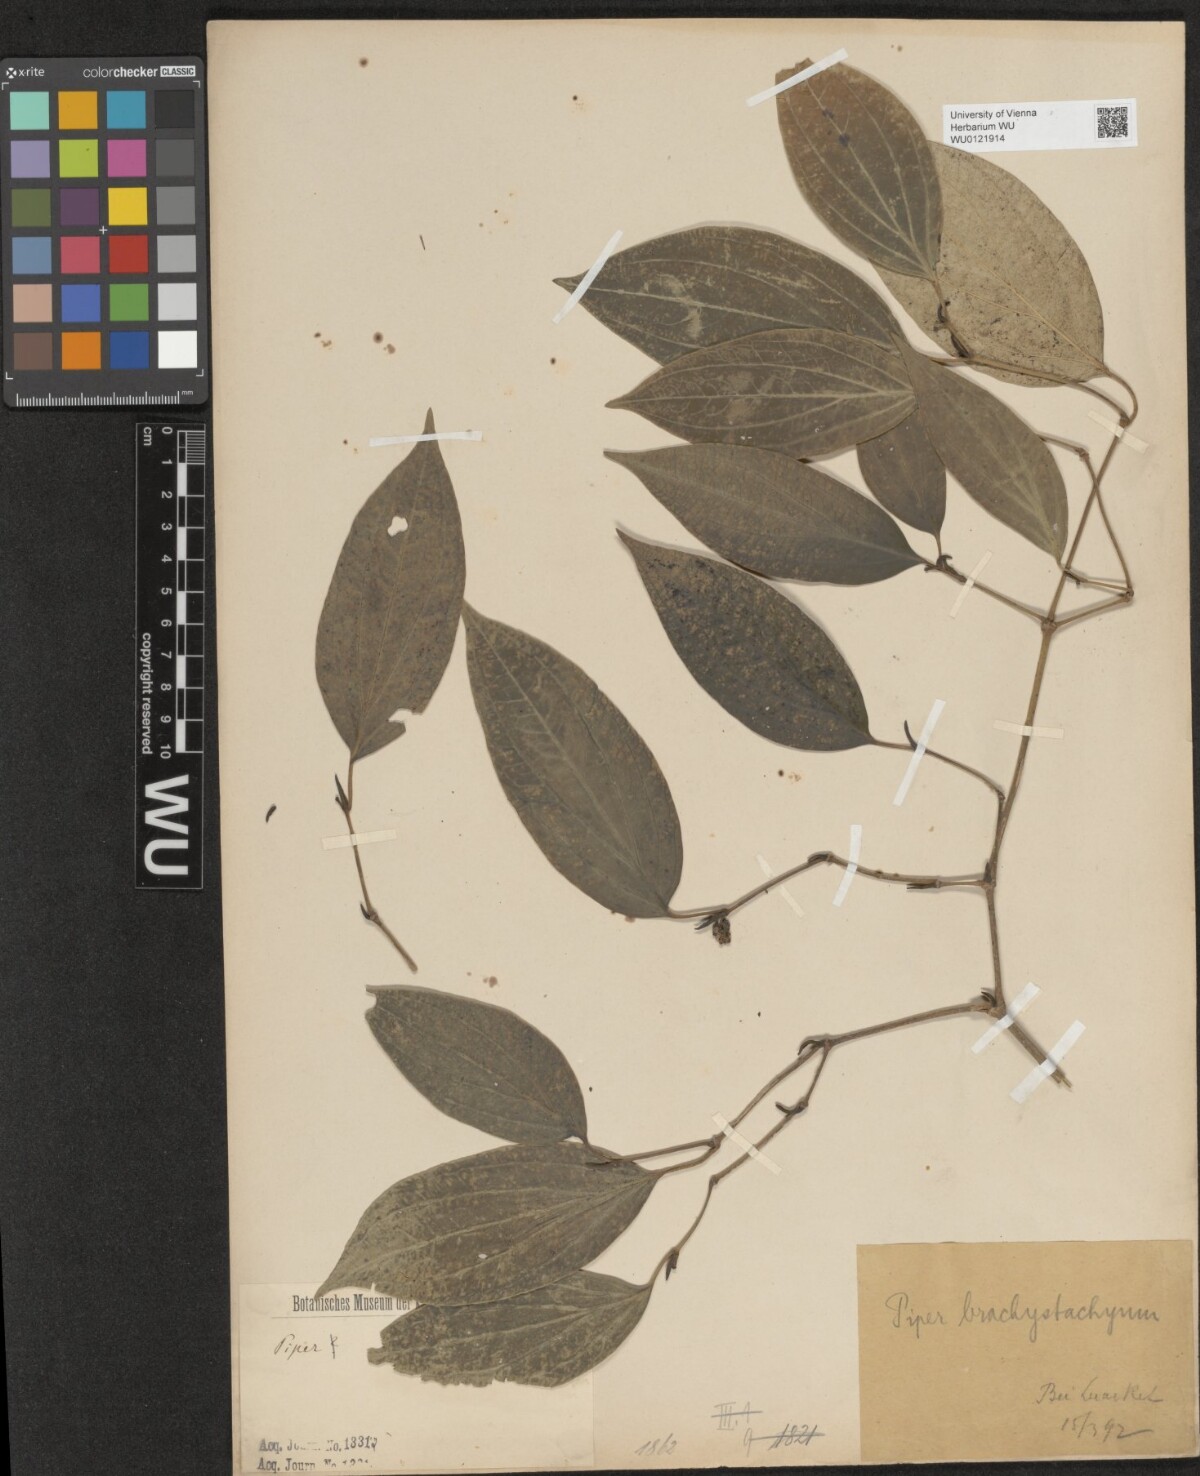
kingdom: Plantae
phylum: Tracheophyta
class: Magnoliopsida
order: Piperales
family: Piperaceae
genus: Piper
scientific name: Piper anonifolium
